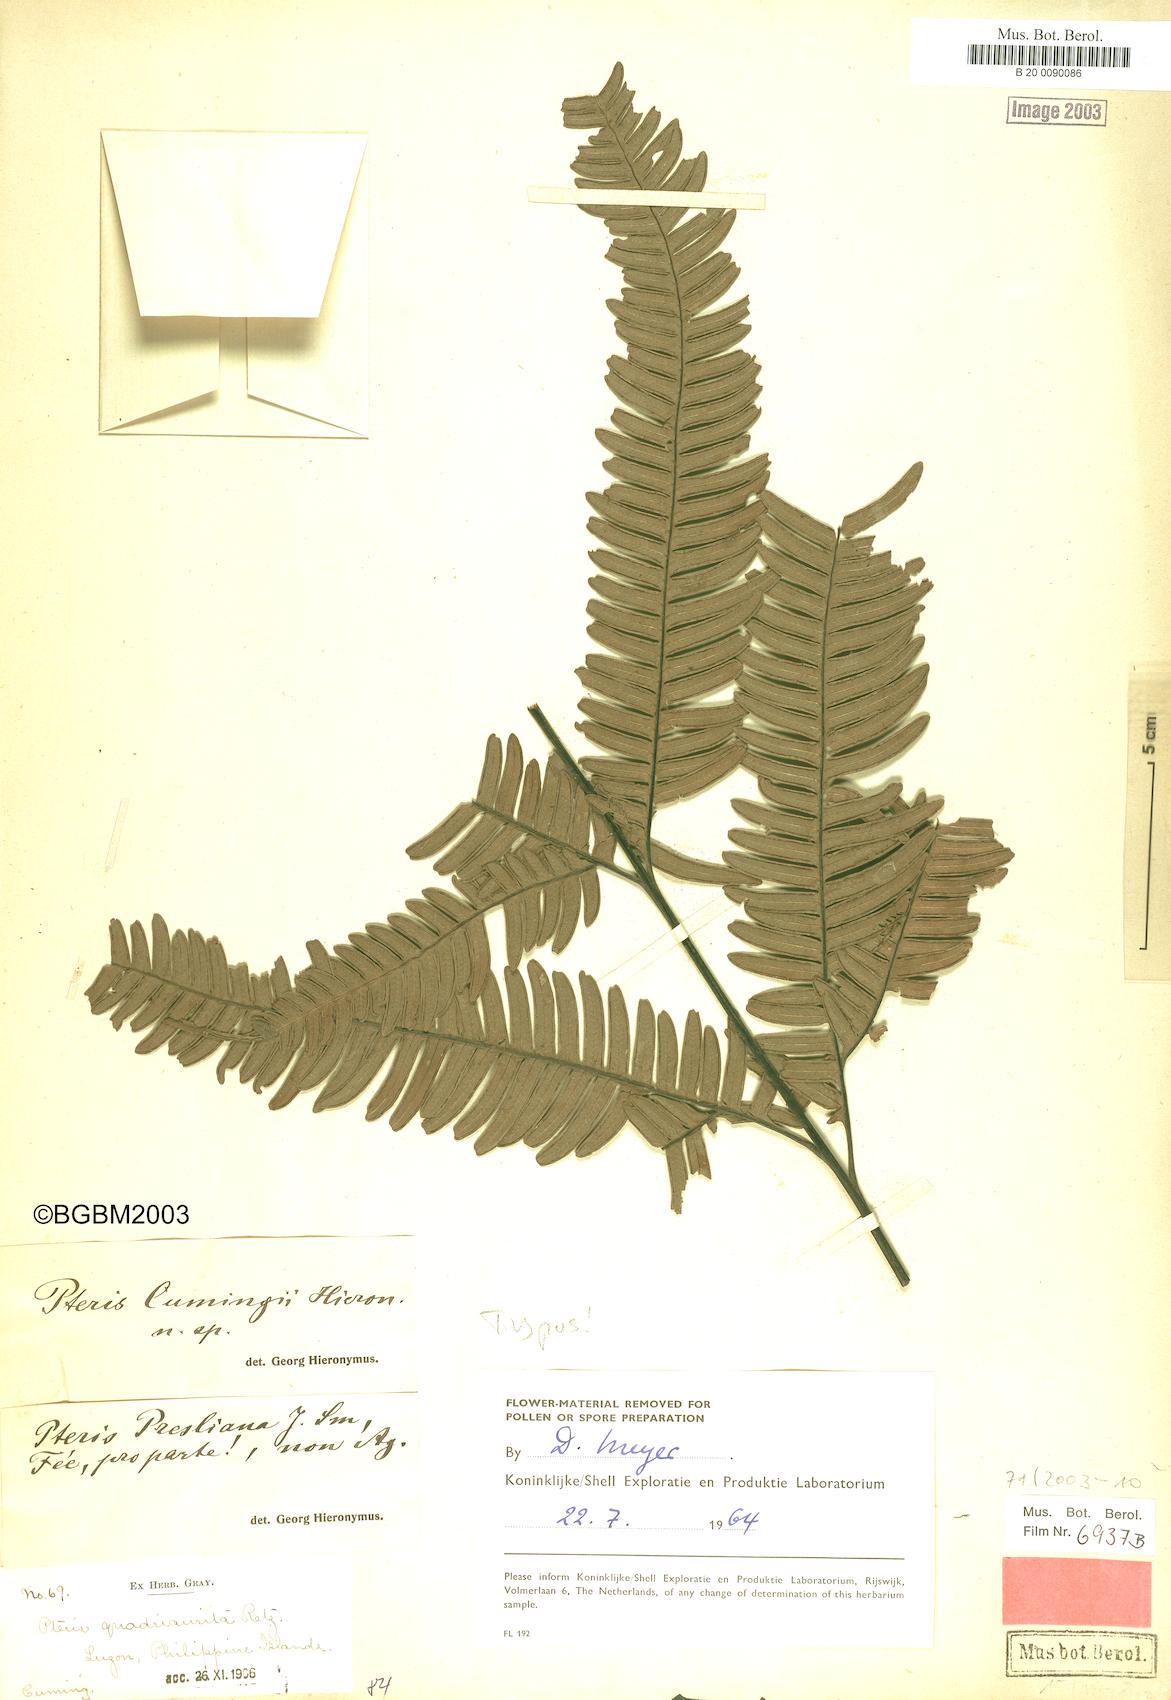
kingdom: Plantae
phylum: Tracheophyta
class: Polypodiopsida
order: Polypodiales
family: Pteridaceae
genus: Pteris
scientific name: Pteris biaurita
